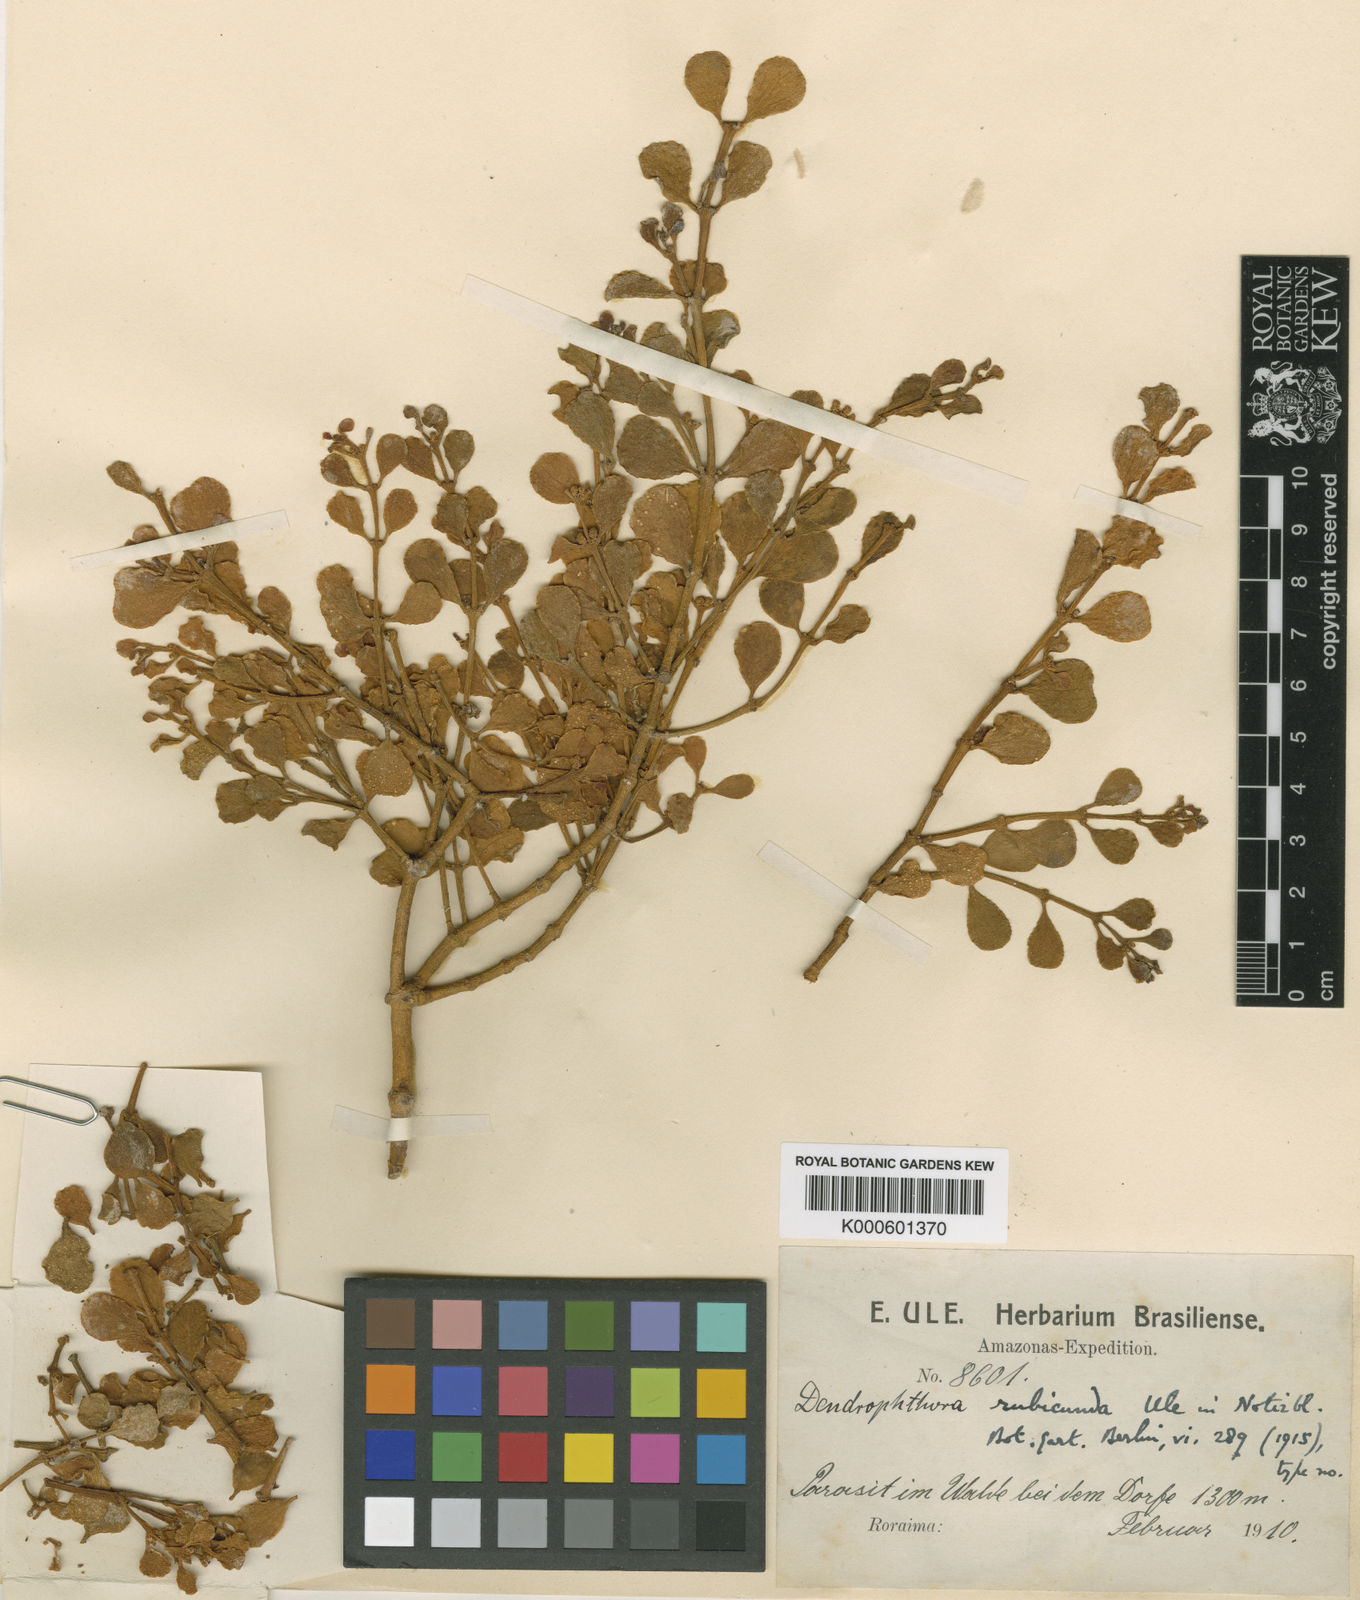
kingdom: Plantae
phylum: Tracheophyta
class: Magnoliopsida
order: Santalales
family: Viscaceae
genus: Dendrophthora
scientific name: Dendrophthora elliptica
